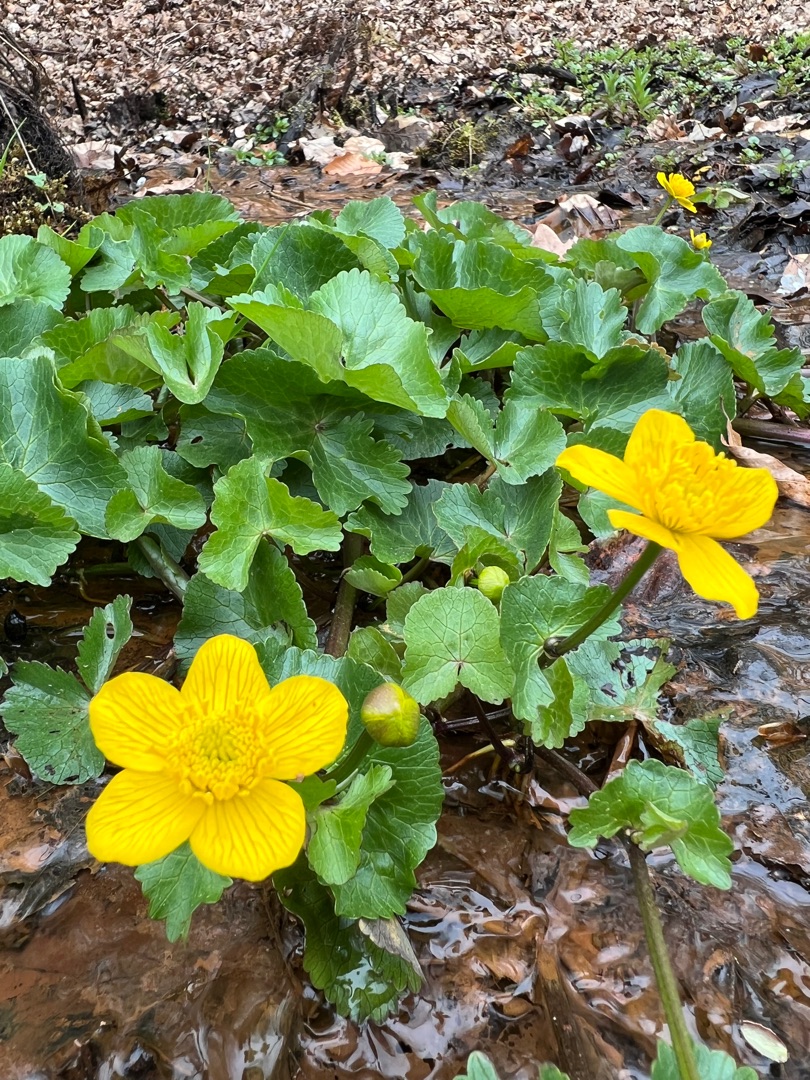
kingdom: Plantae
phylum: Tracheophyta
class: Magnoliopsida
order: Ranunculales
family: Ranunculaceae
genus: Caltha
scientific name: Caltha palustris
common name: Eng-kabbeleje
